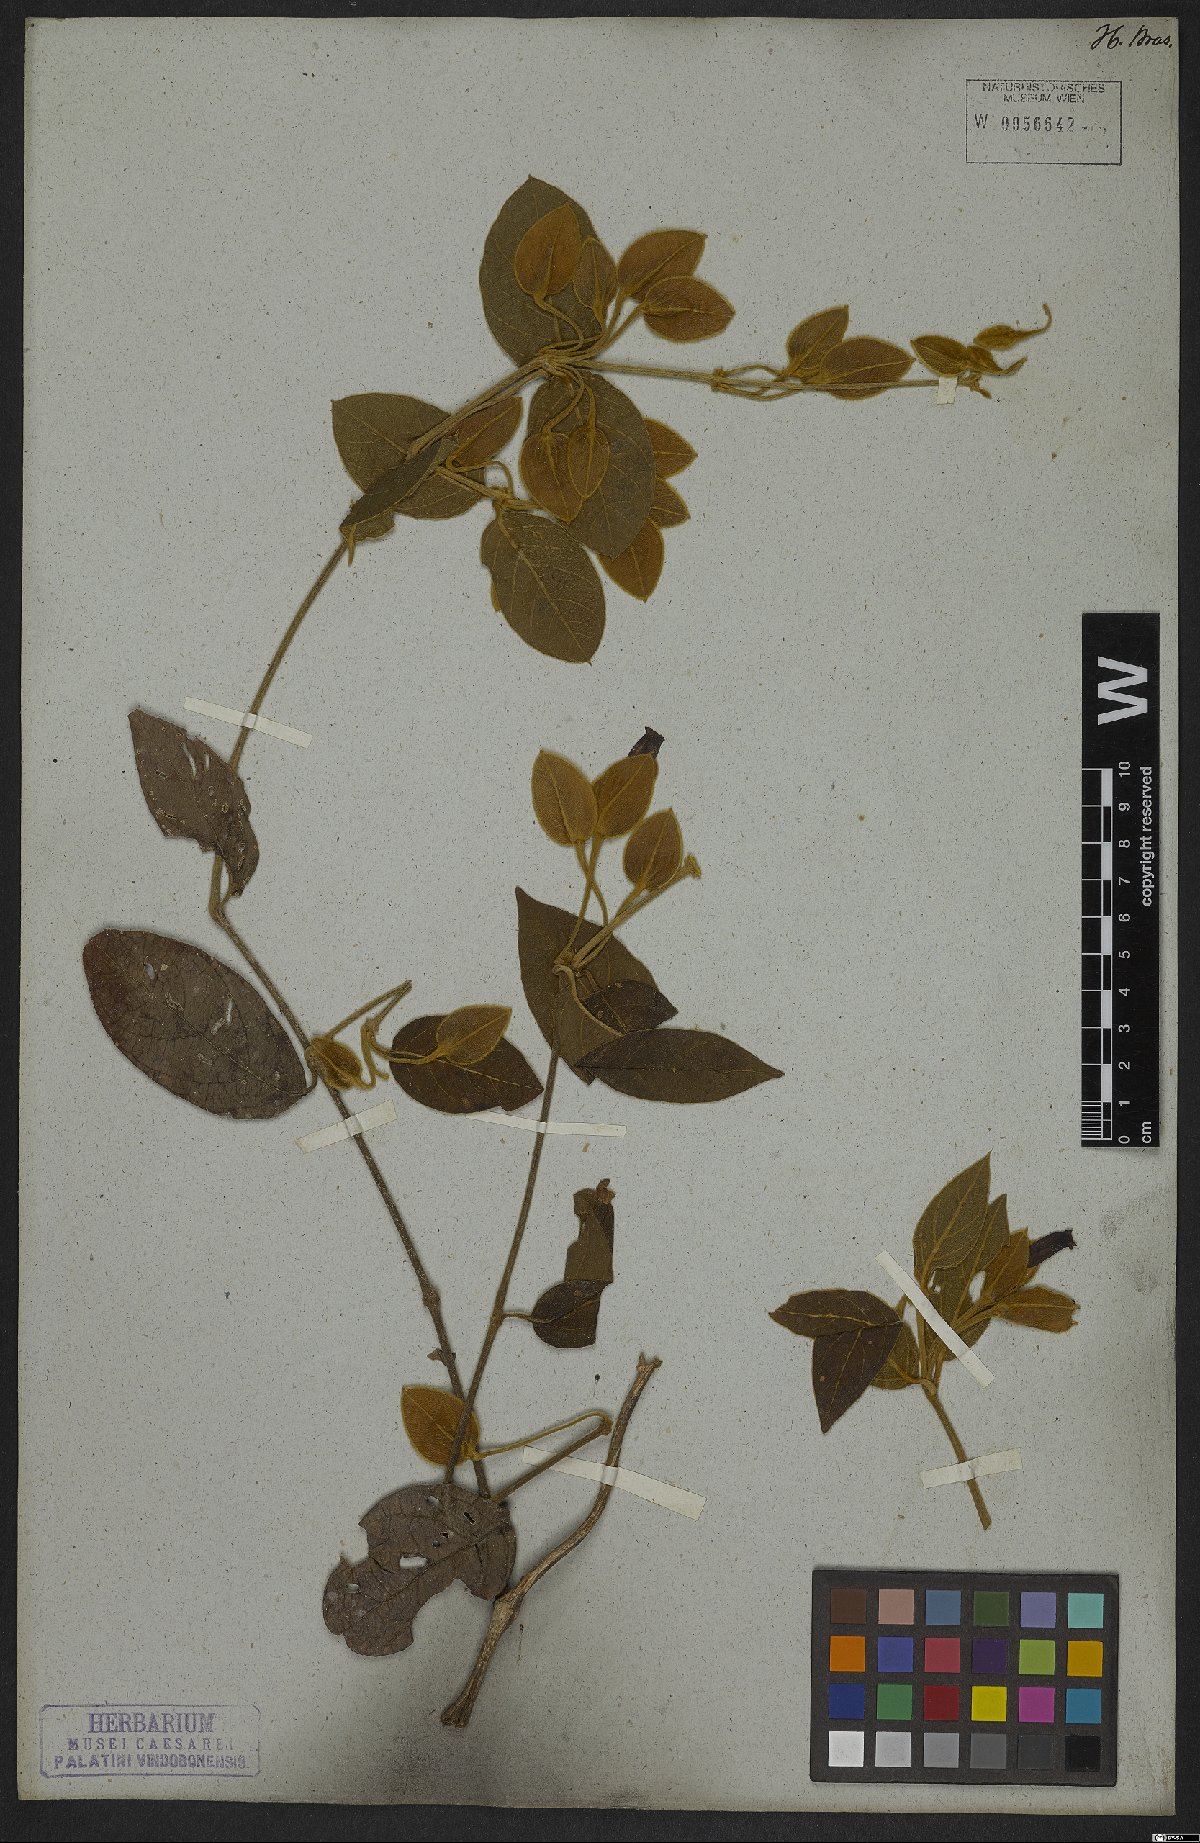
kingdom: Plantae
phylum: Tracheophyta
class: Magnoliopsida
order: Lamiales
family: Acanthaceae
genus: Mendoncia
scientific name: Mendoncia velloziana
